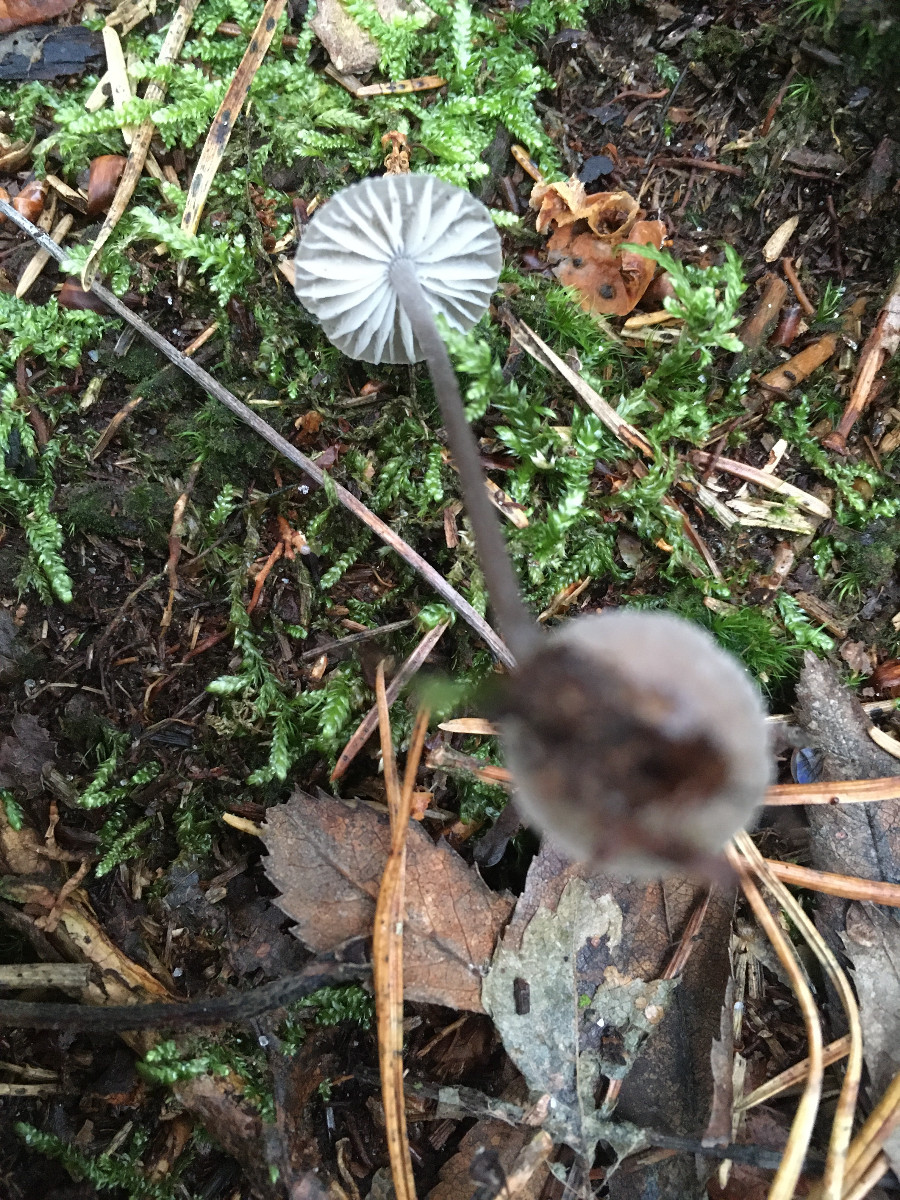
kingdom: Fungi
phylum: Basidiomycota
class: Agaricomycetes
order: Agaricales
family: Mycenaceae
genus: Mycena
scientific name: Mycena galopus
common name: hvidmælket huesvamp
